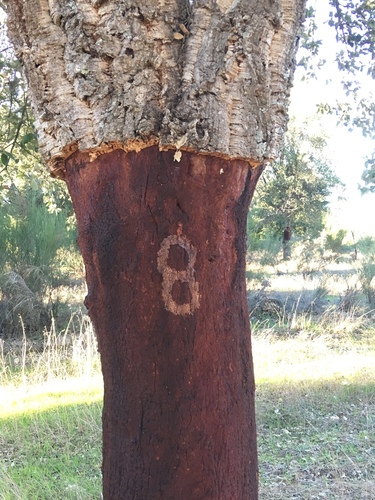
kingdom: Plantae
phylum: Tracheophyta
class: Magnoliopsida
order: Fagales
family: Fagaceae
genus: Quercus
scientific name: Quercus suber
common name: Cork oak
